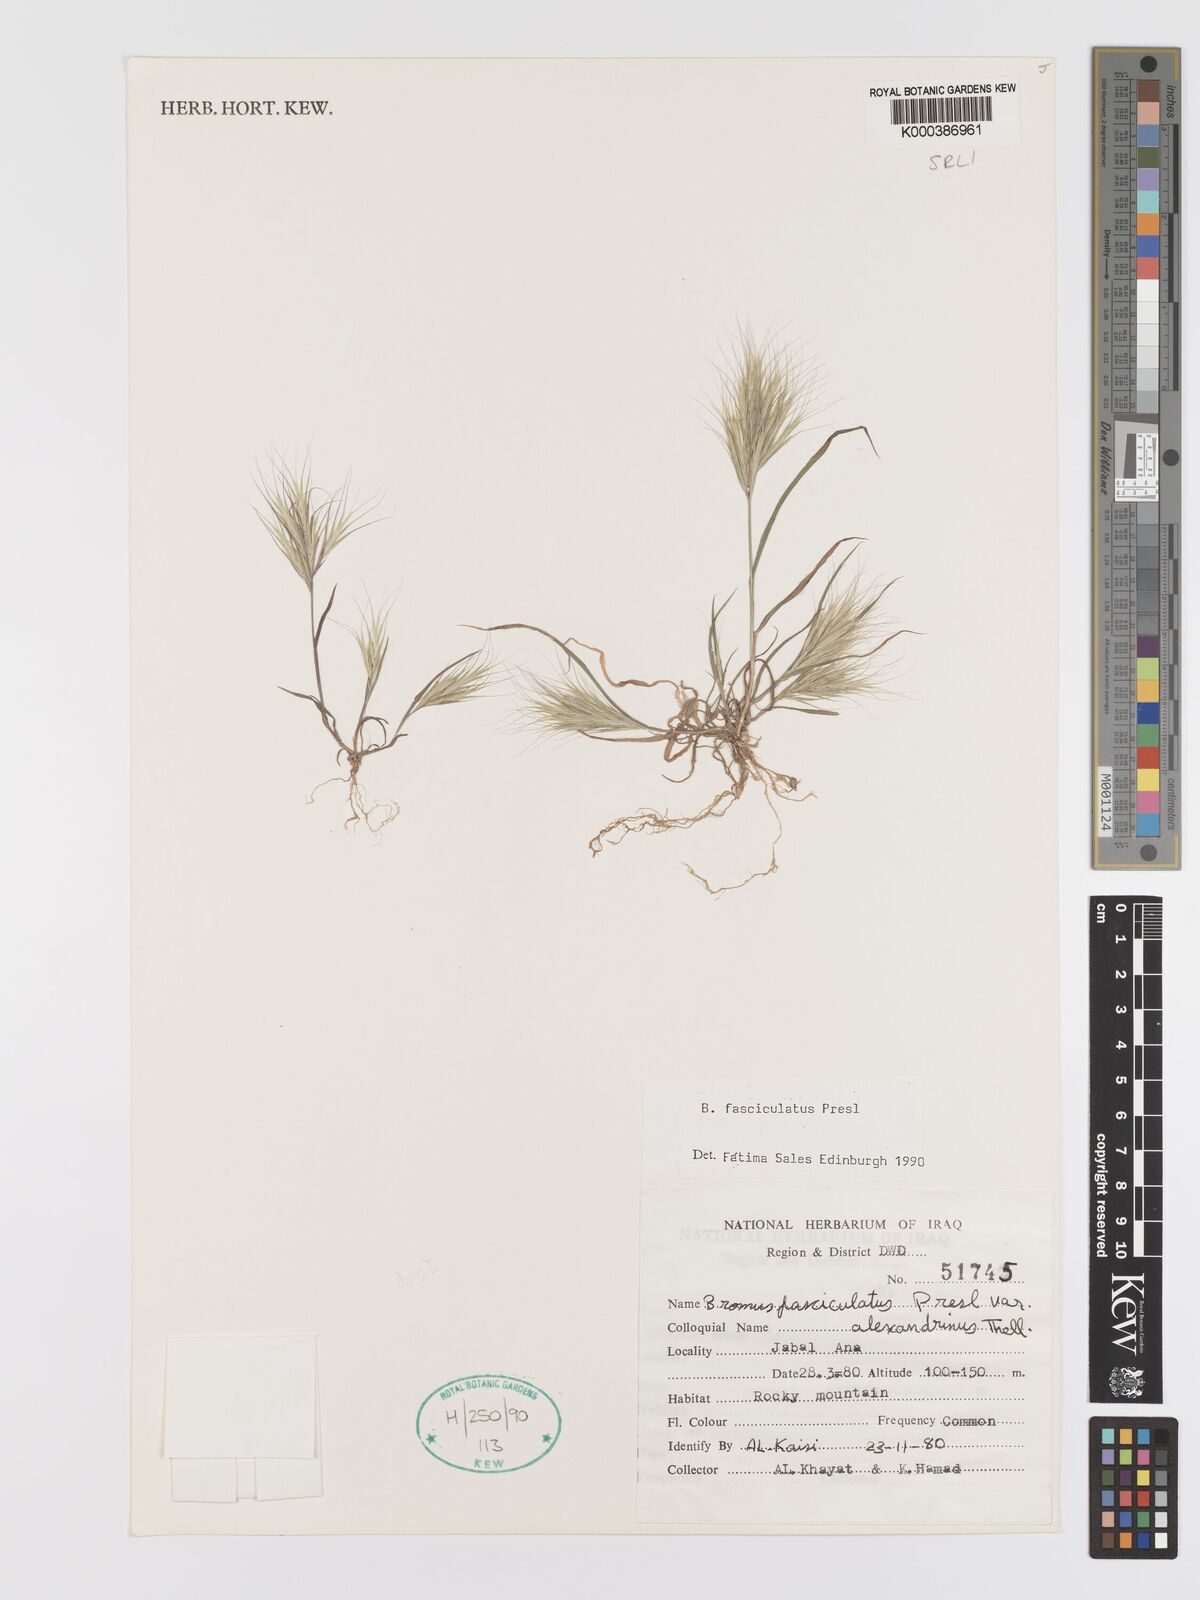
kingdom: Plantae
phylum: Tracheophyta
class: Liliopsida
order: Poales
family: Poaceae
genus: Bromus
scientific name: Bromus fasciculatus
